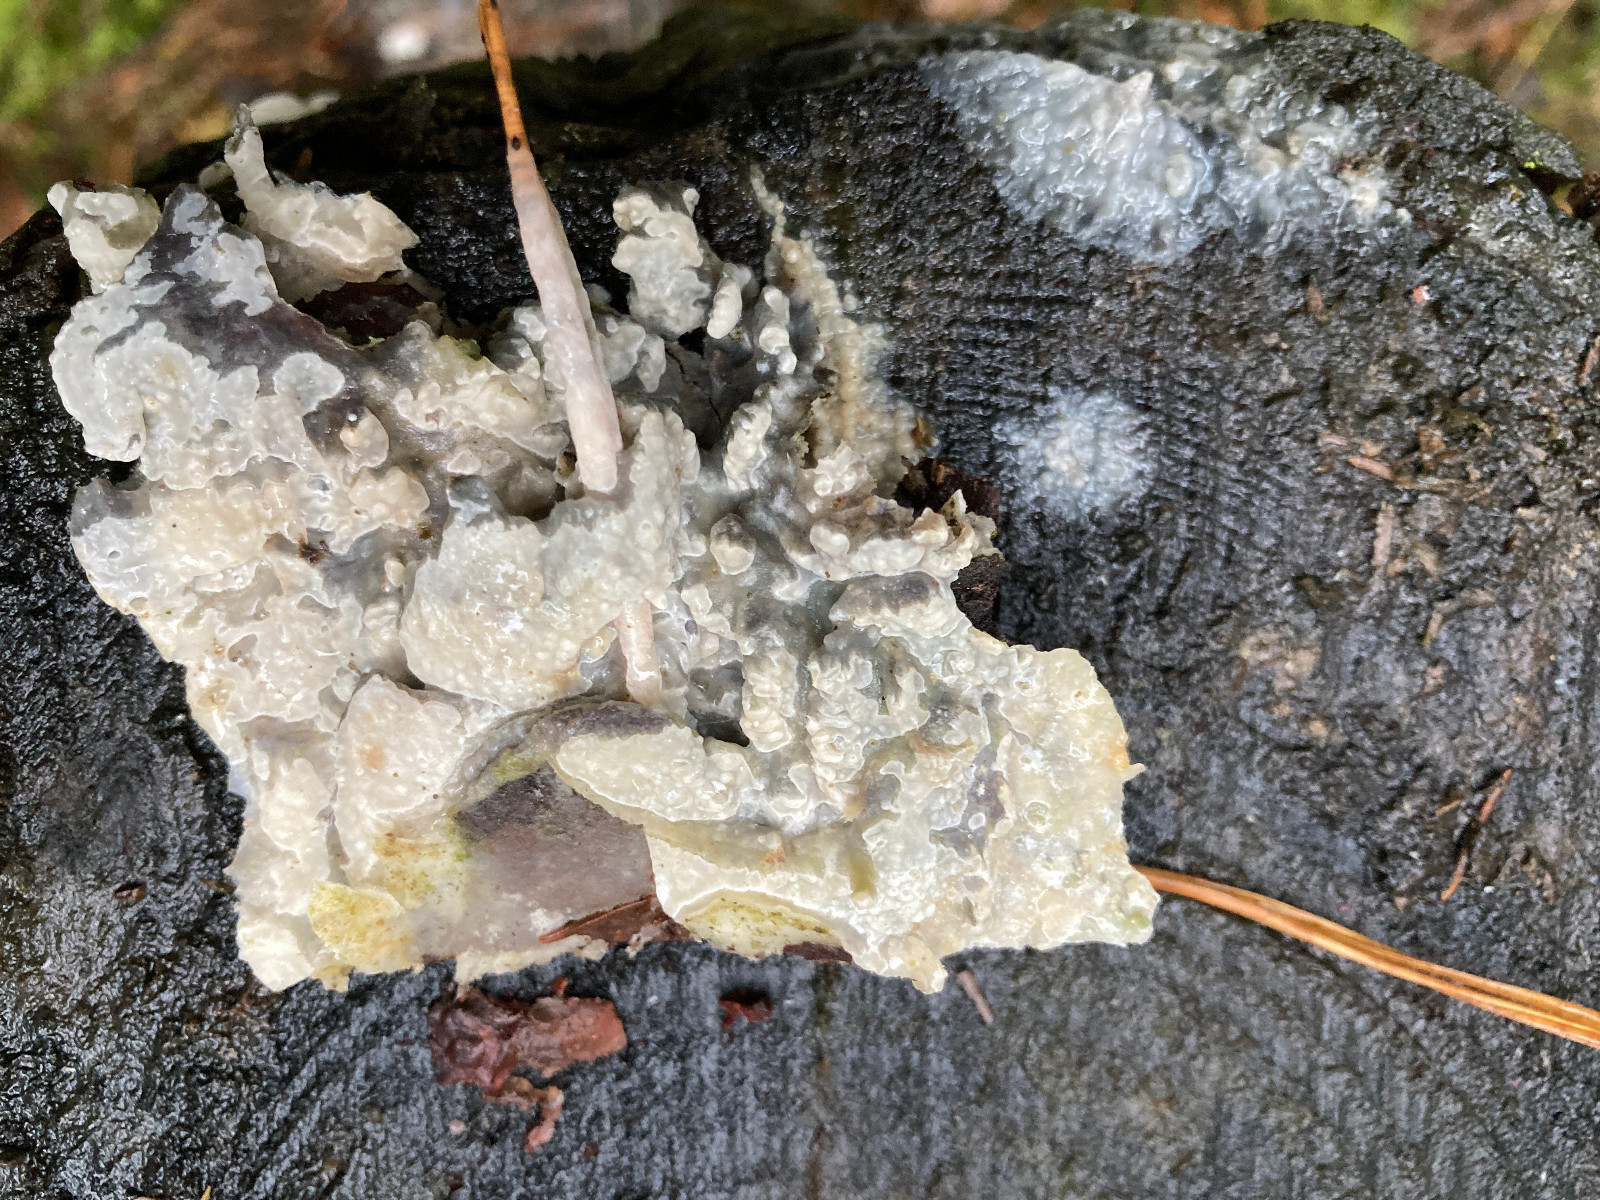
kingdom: Fungi
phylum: Basidiomycota
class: Agaricomycetes
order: Polyporales
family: Phanerochaetaceae
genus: Phlebiopsis
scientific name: Phlebiopsis gigantea
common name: kæmpebarksvamp
